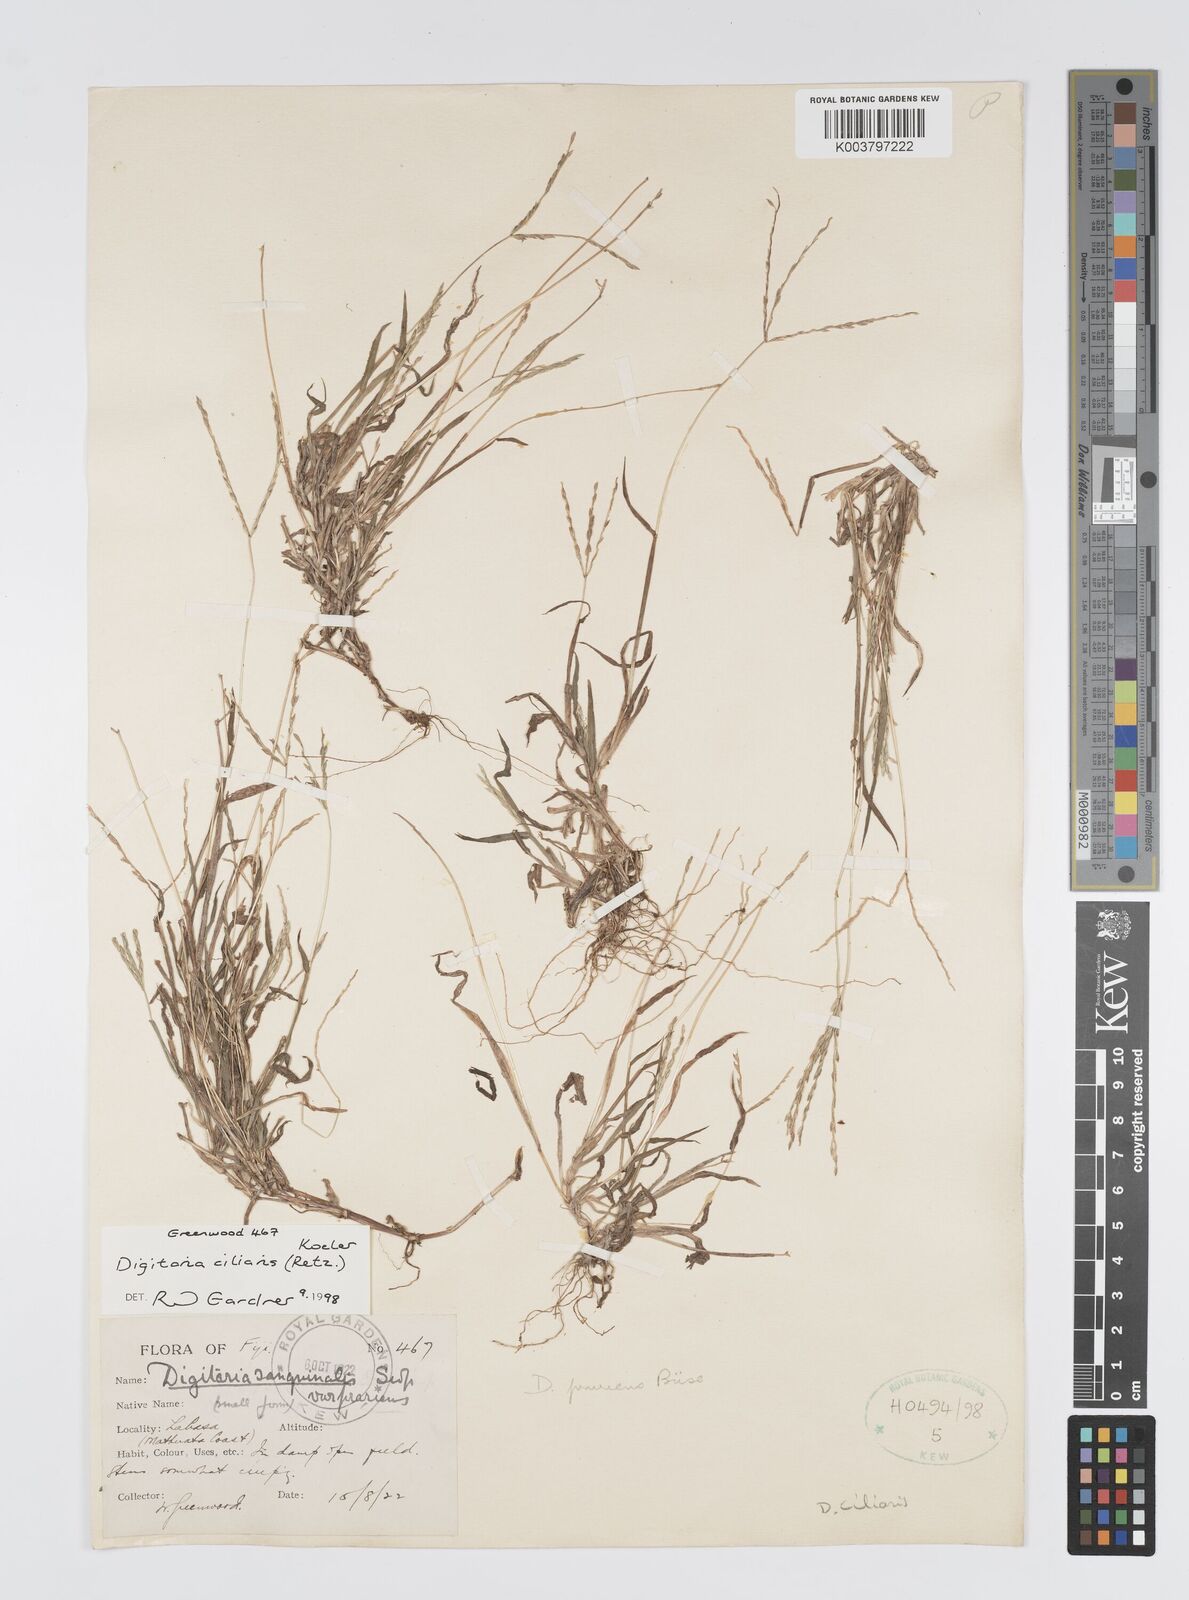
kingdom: Plantae
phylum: Tracheophyta
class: Liliopsida
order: Poales
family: Poaceae
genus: Digitaria
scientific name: Digitaria ciliaris
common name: Tropical finger-grass
